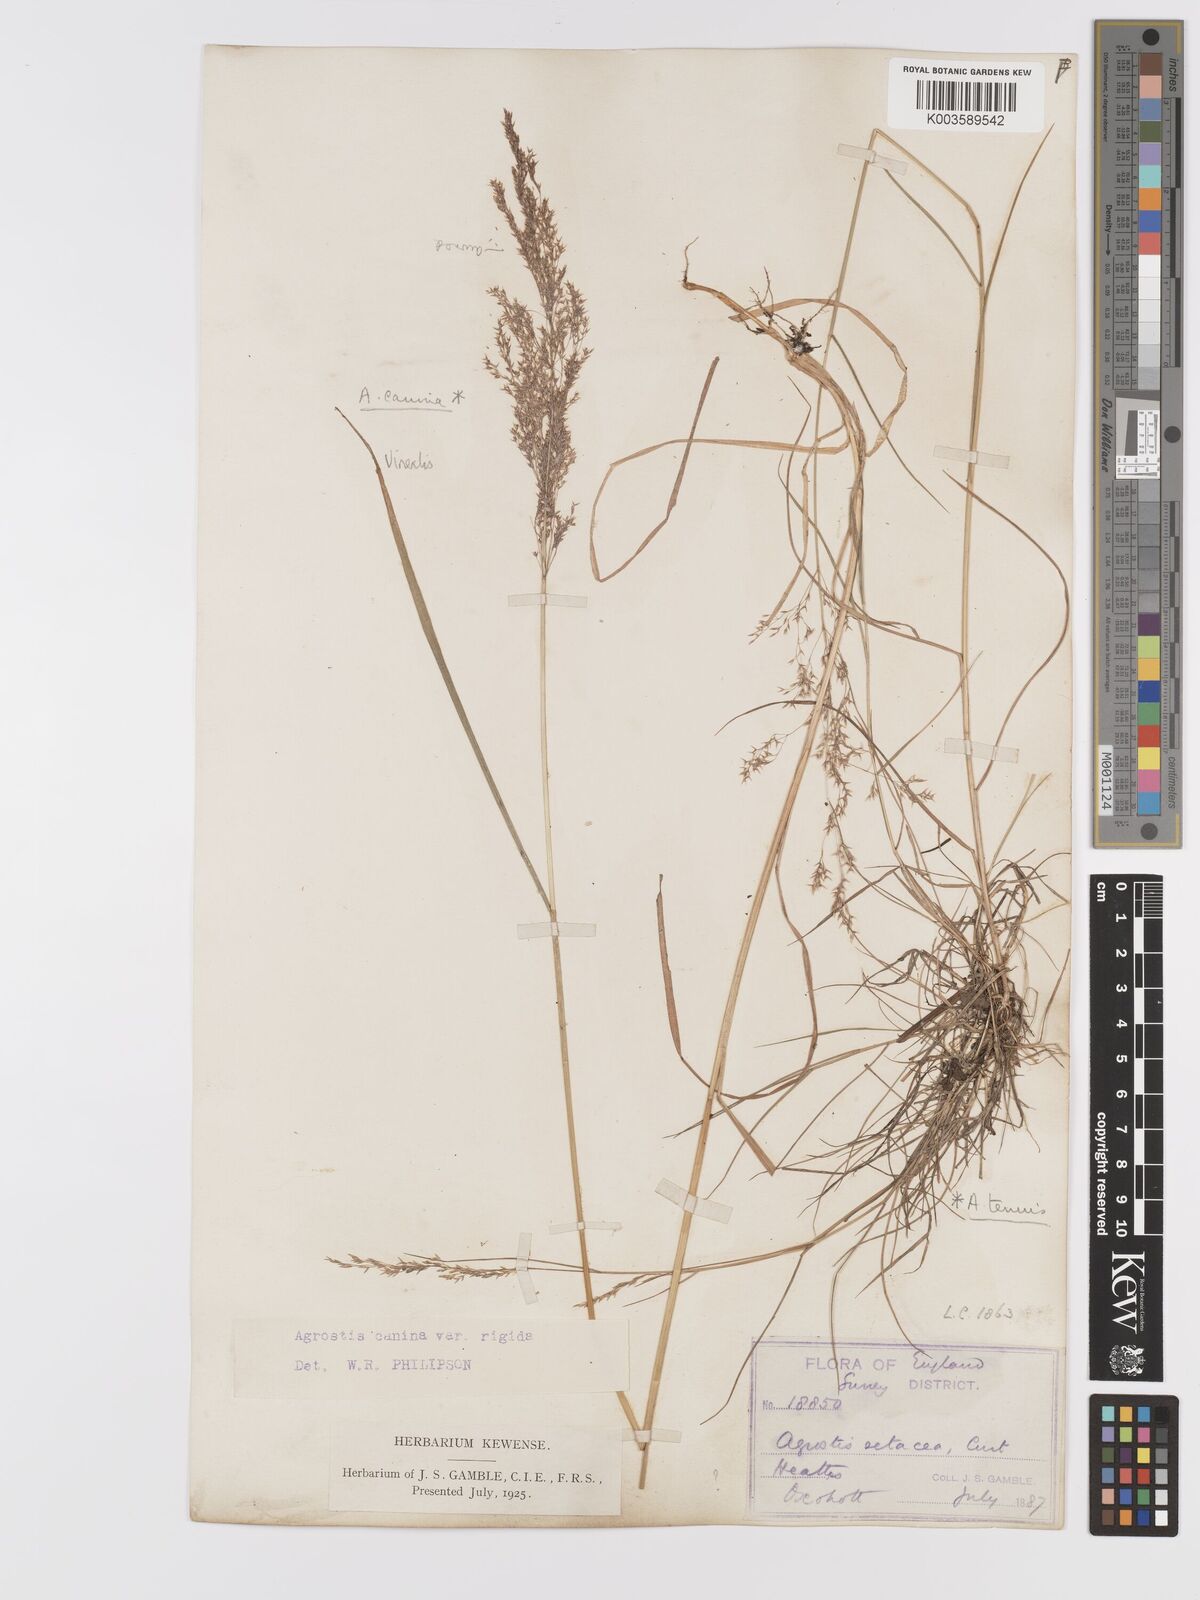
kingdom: Plantae
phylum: Tracheophyta
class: Liliopsida
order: Poales
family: Poaceae
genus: Agrostis
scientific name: Agrostis
